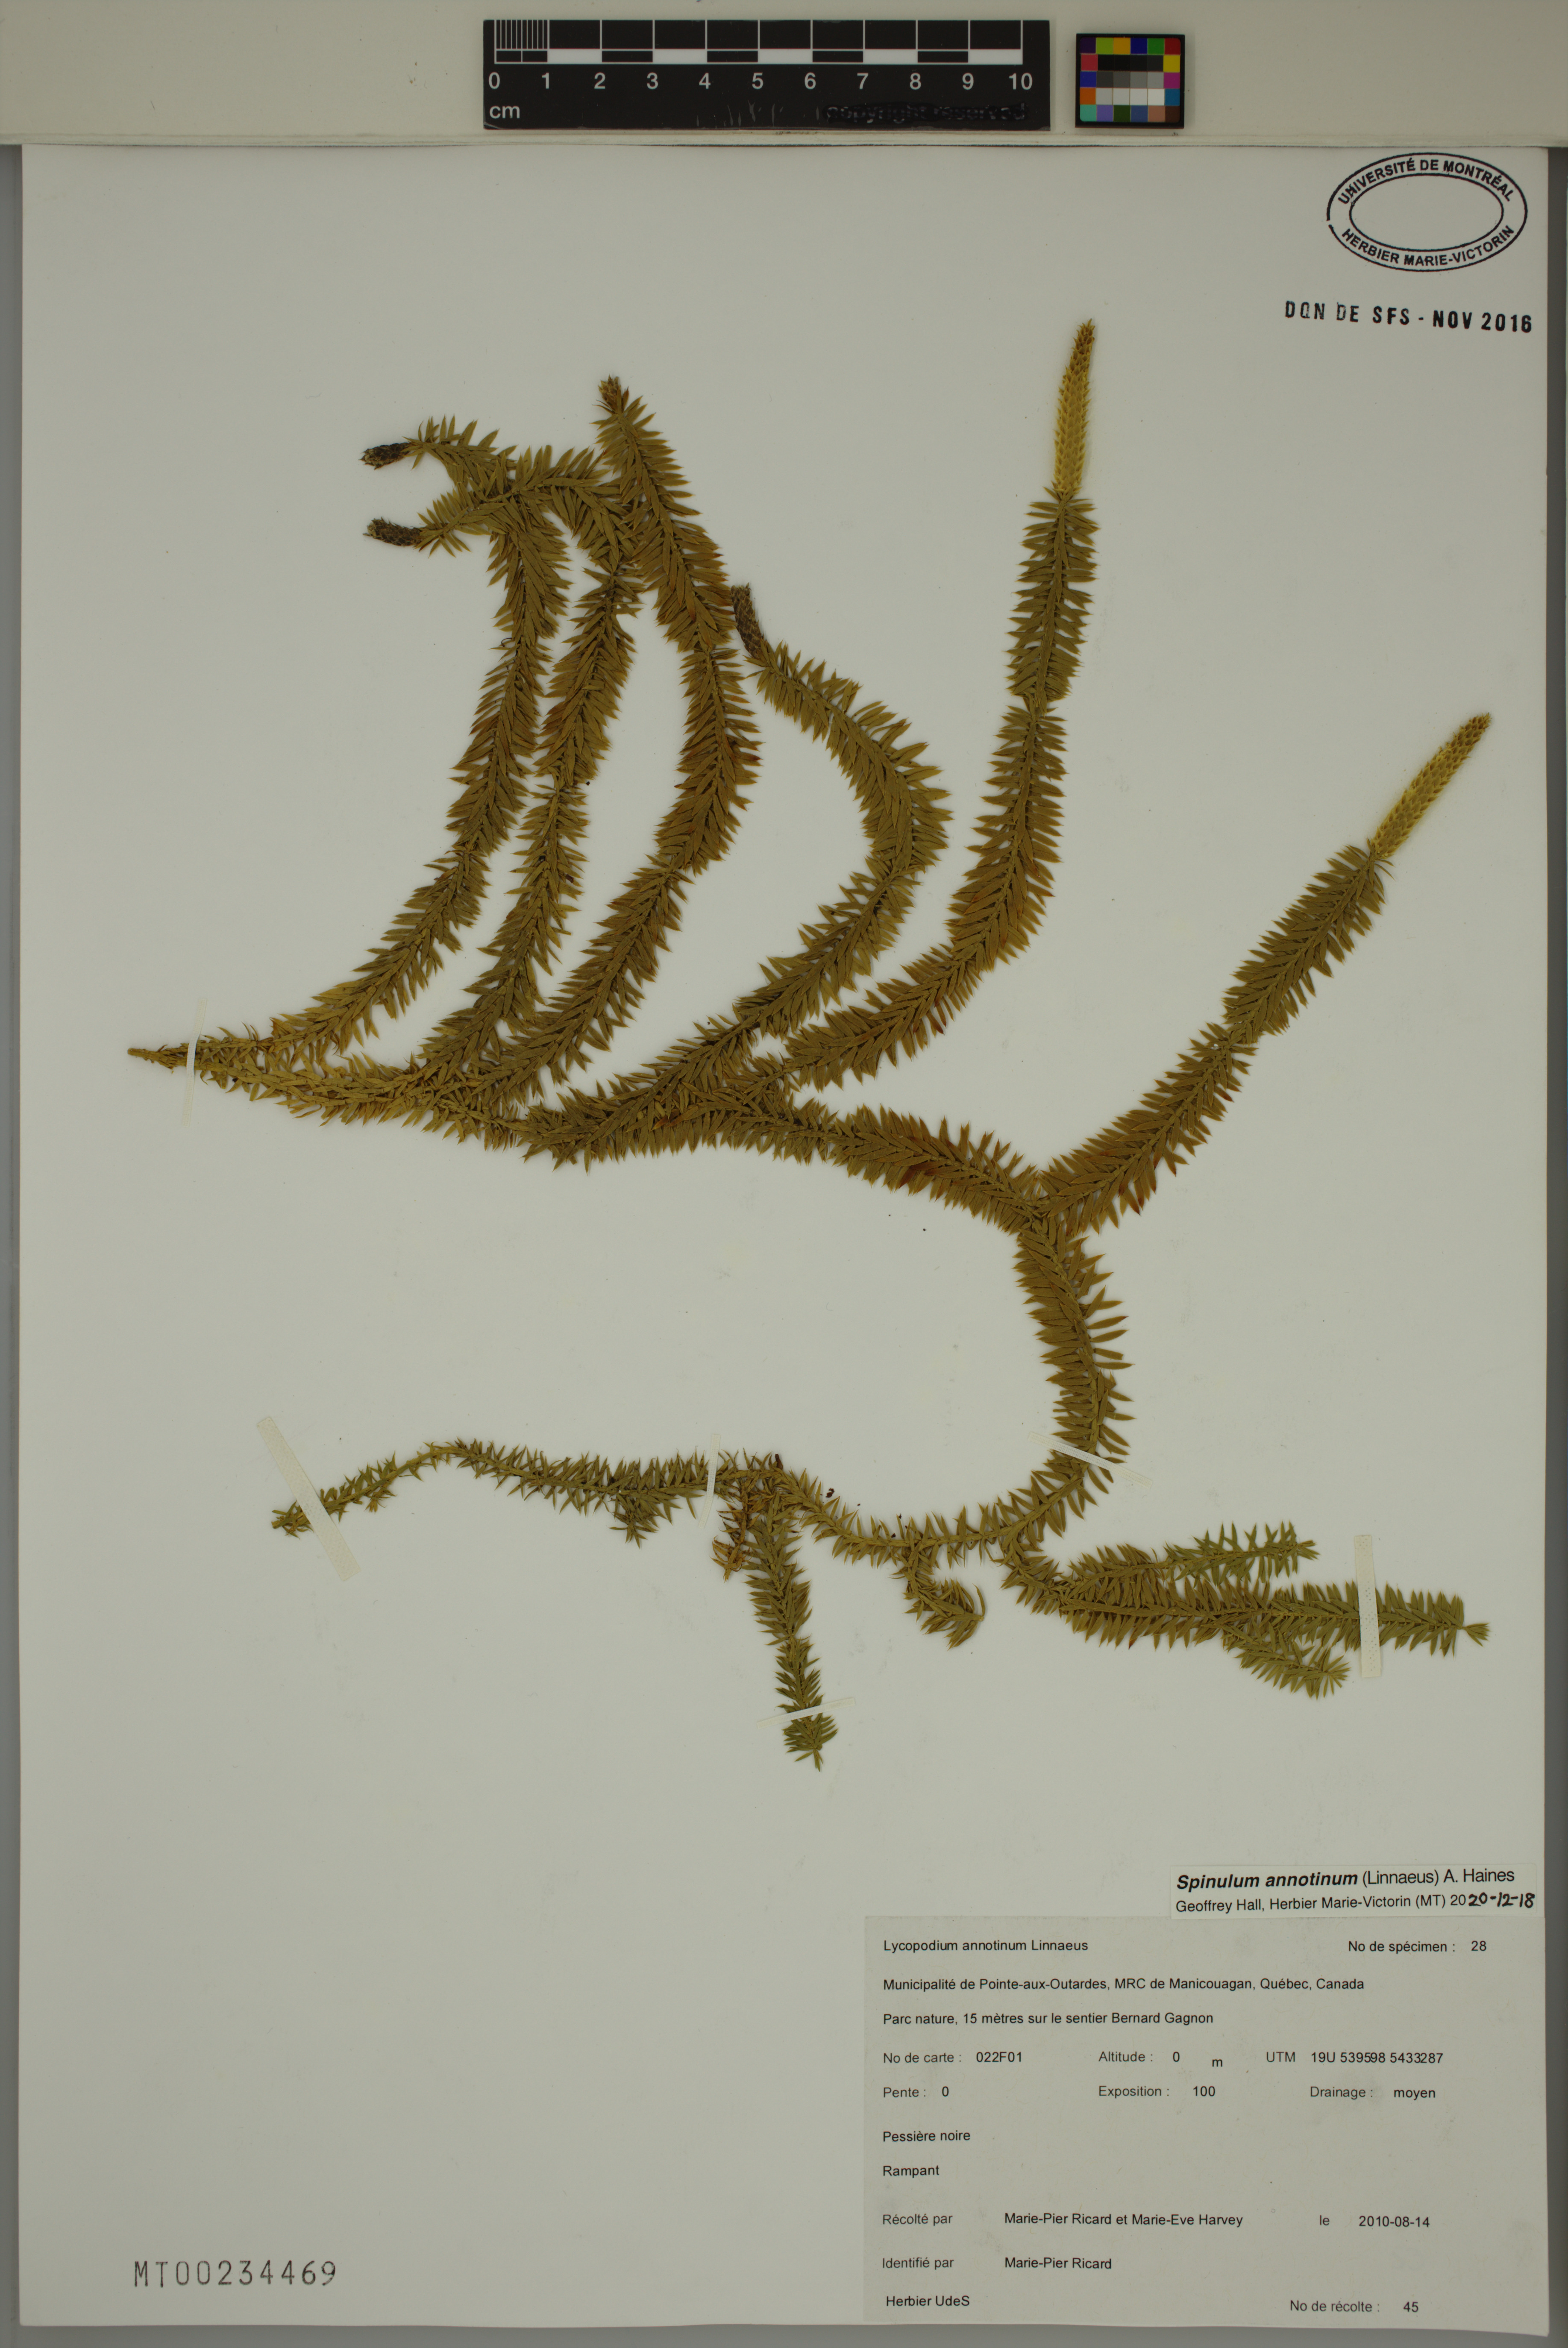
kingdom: Plantae
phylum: Tracheophyta
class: Lycopodiopsida
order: Lycopodiales
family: Lycopodiaceae
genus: Spinulum
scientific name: Spinulum annotinum
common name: Interrupted club-moss
